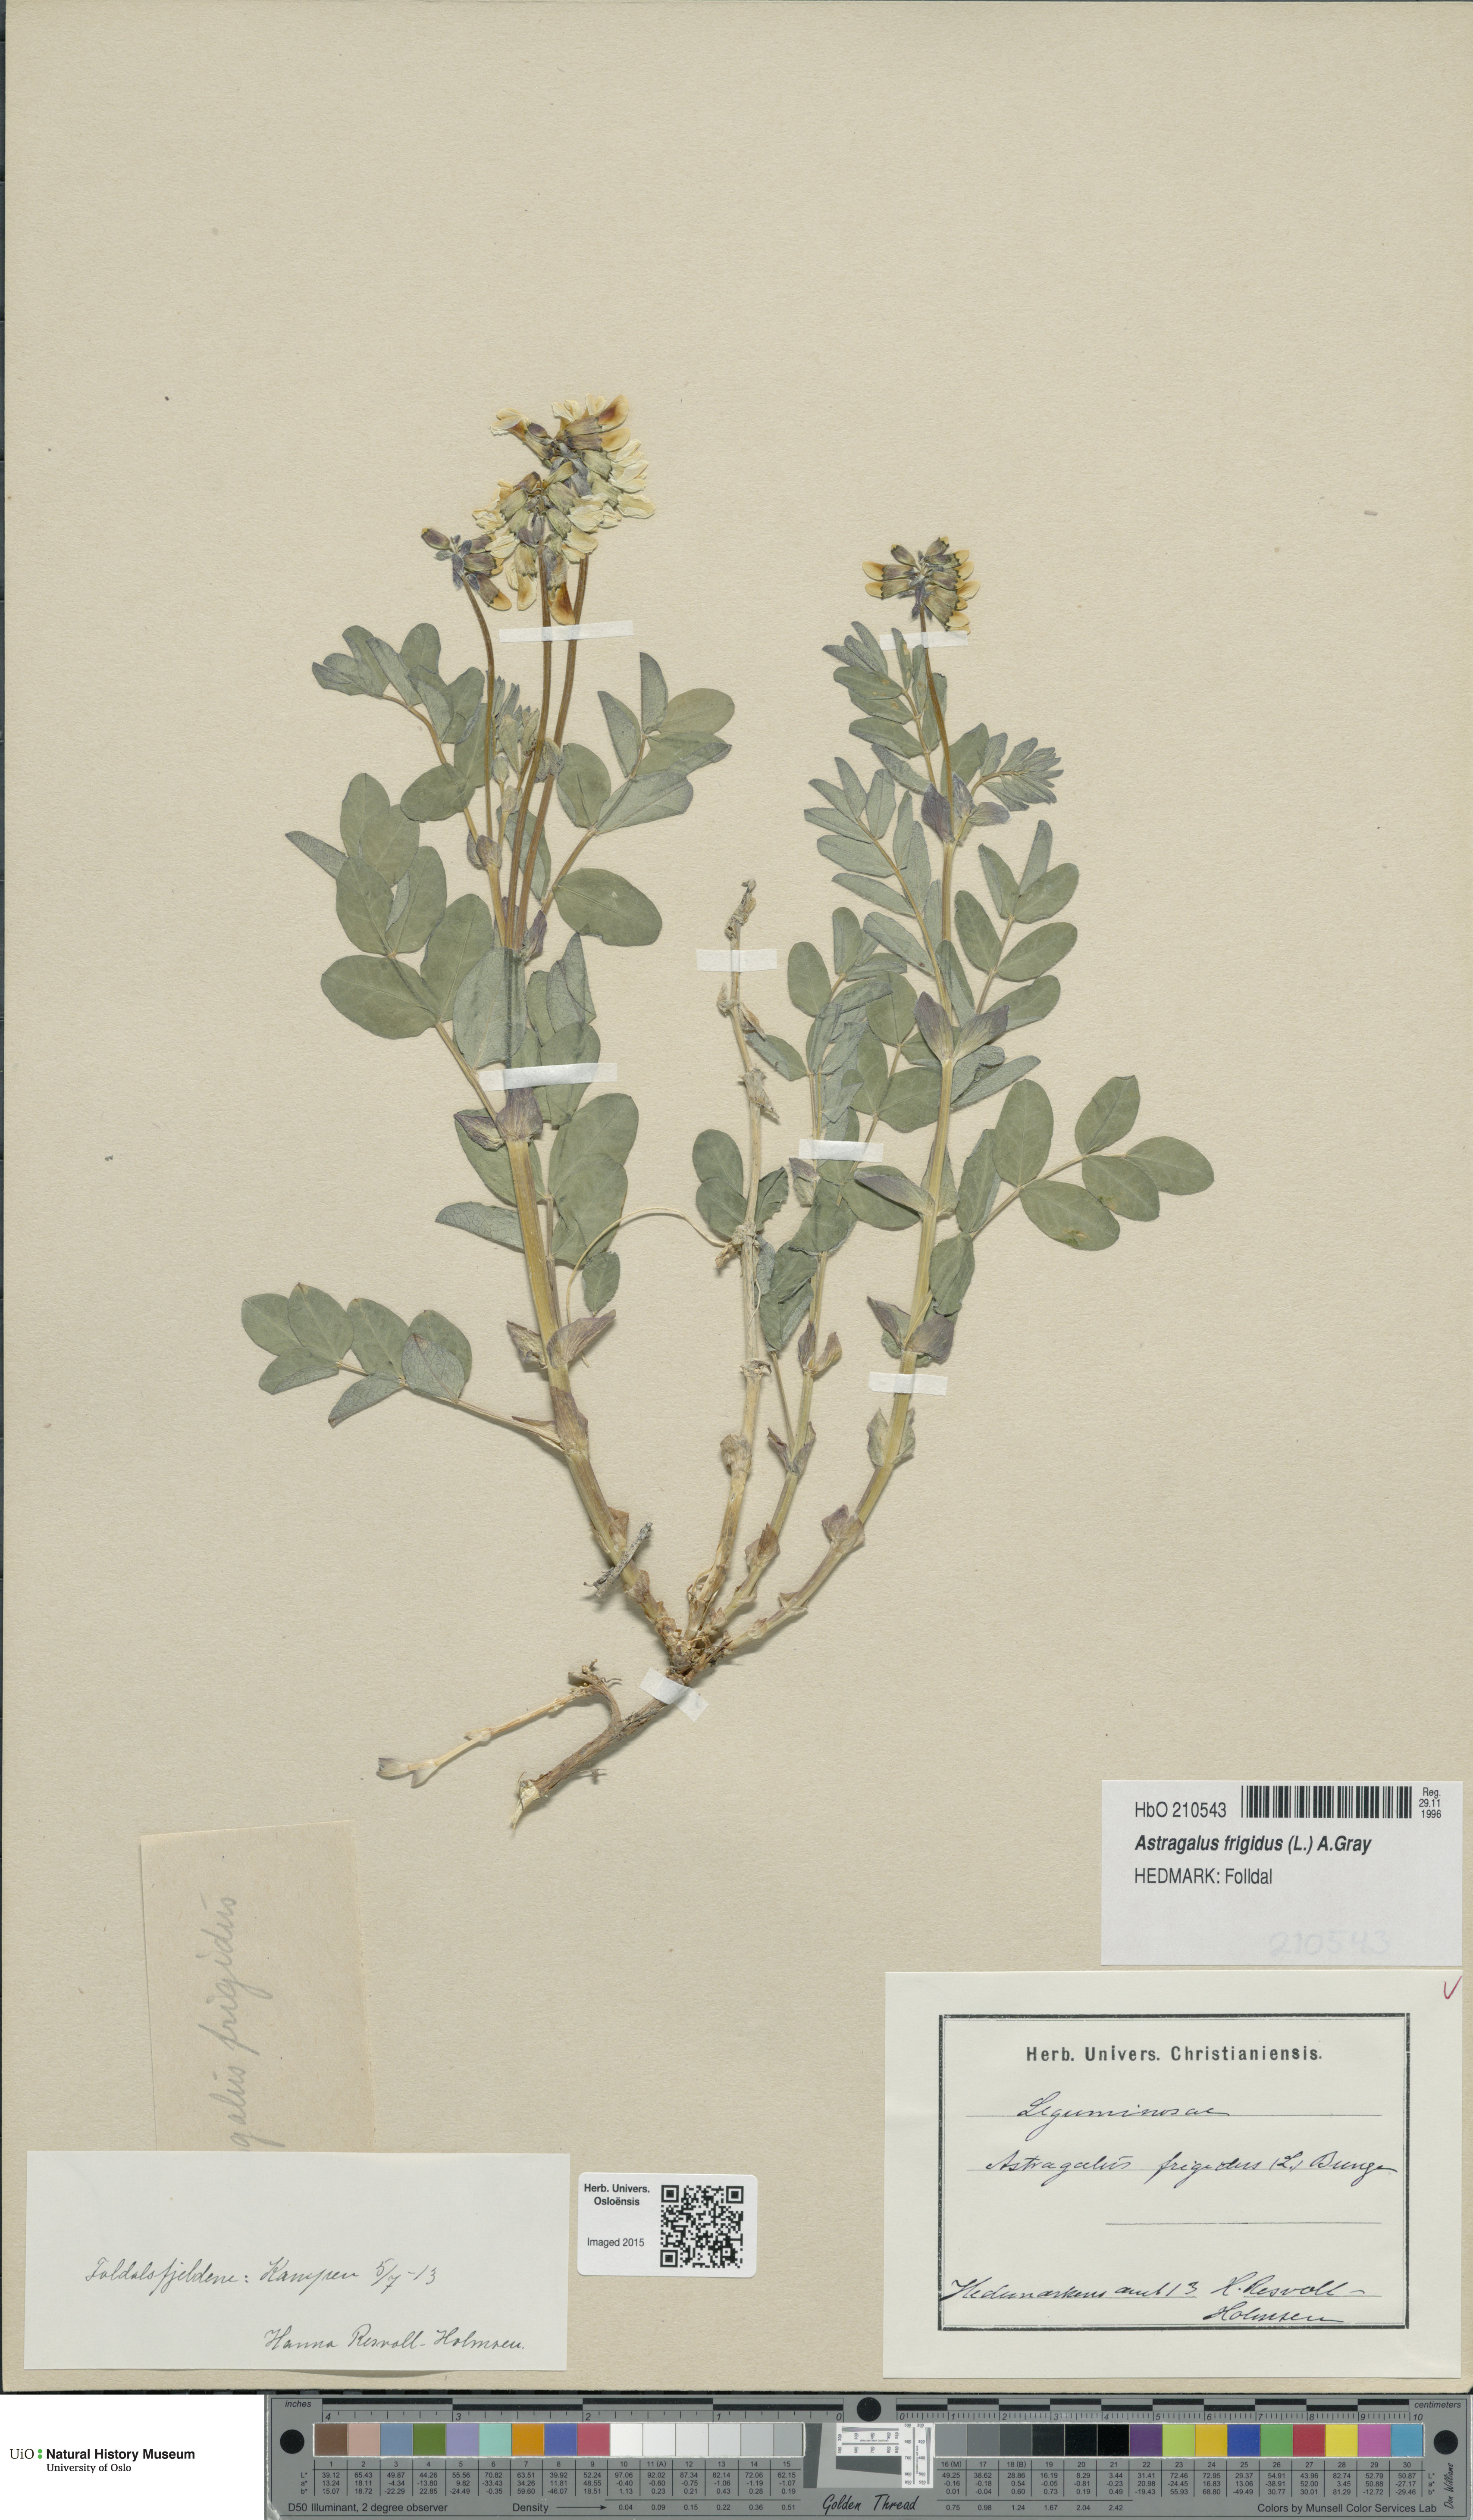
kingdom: Plantae
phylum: Tracheophyta
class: Magnoliopsida
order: Fabales
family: Fabaceae
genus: Astragalus
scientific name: Astragalus frigidus
